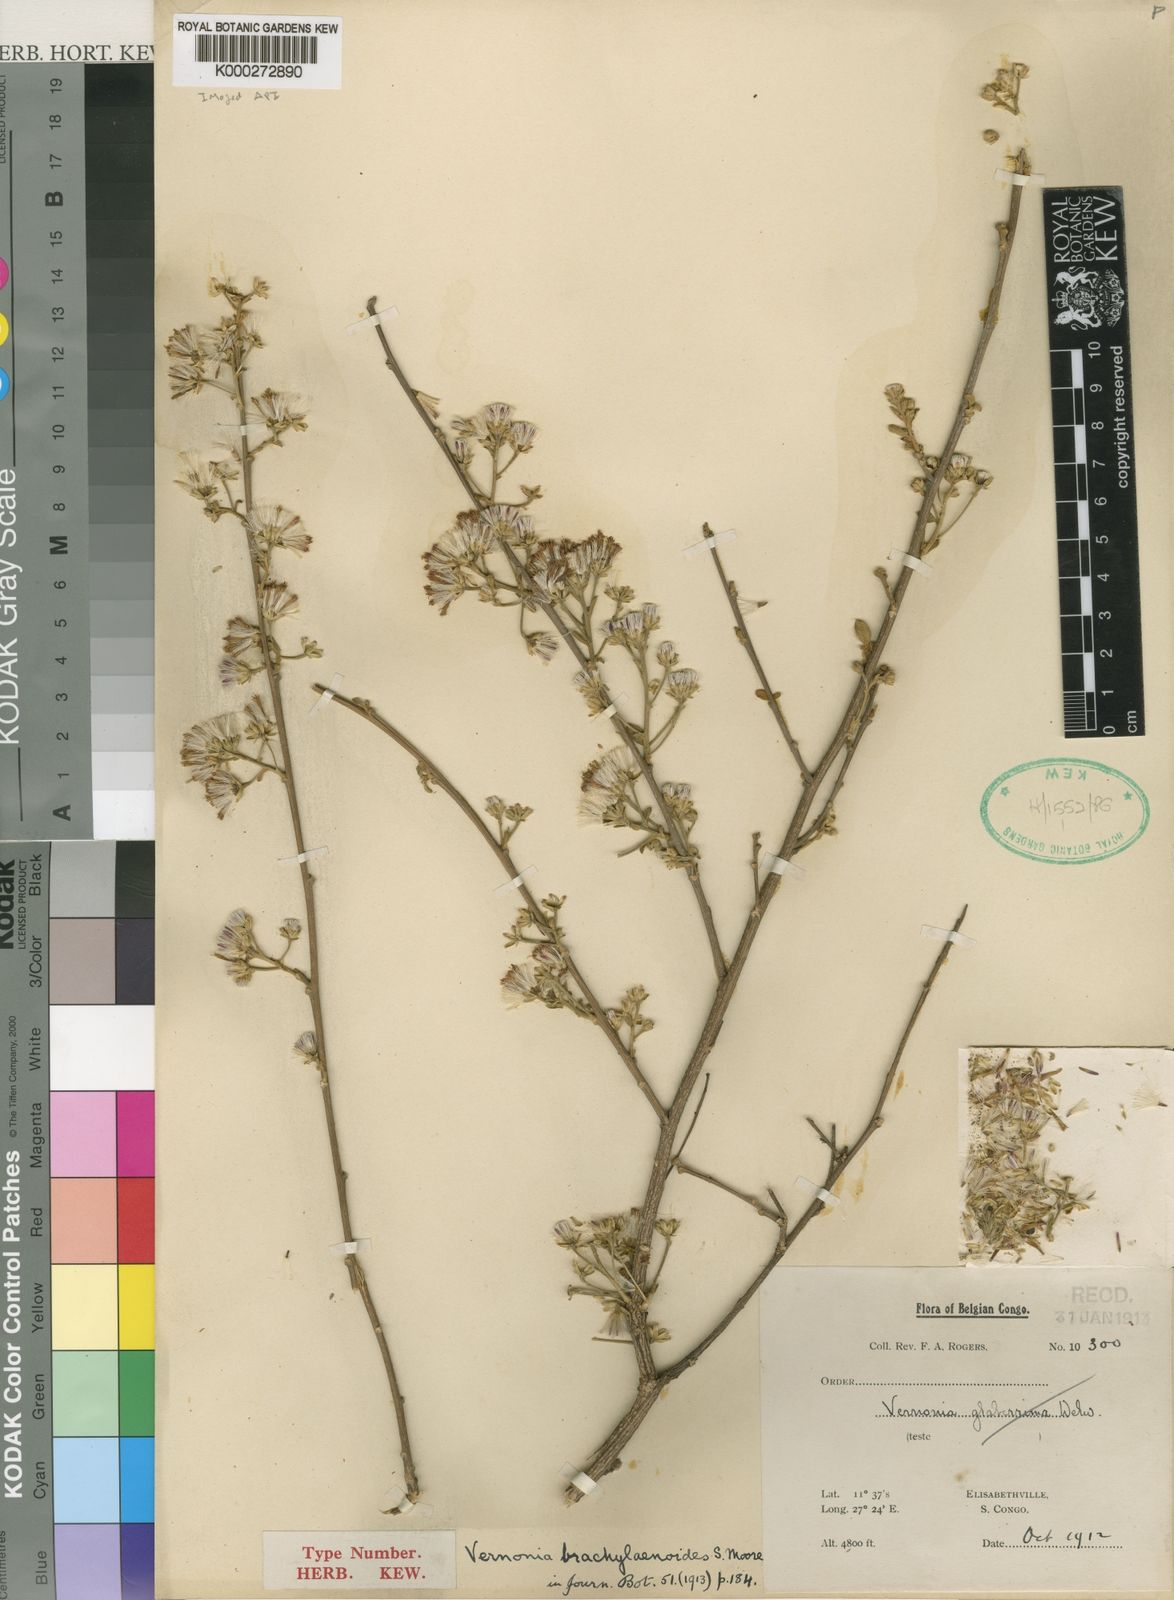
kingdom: Plantae
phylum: Tracheophyta
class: Magnoliopsida
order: Asterales
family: Asteraceae
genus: Vernonia
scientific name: Vernonia suprafastigiata
